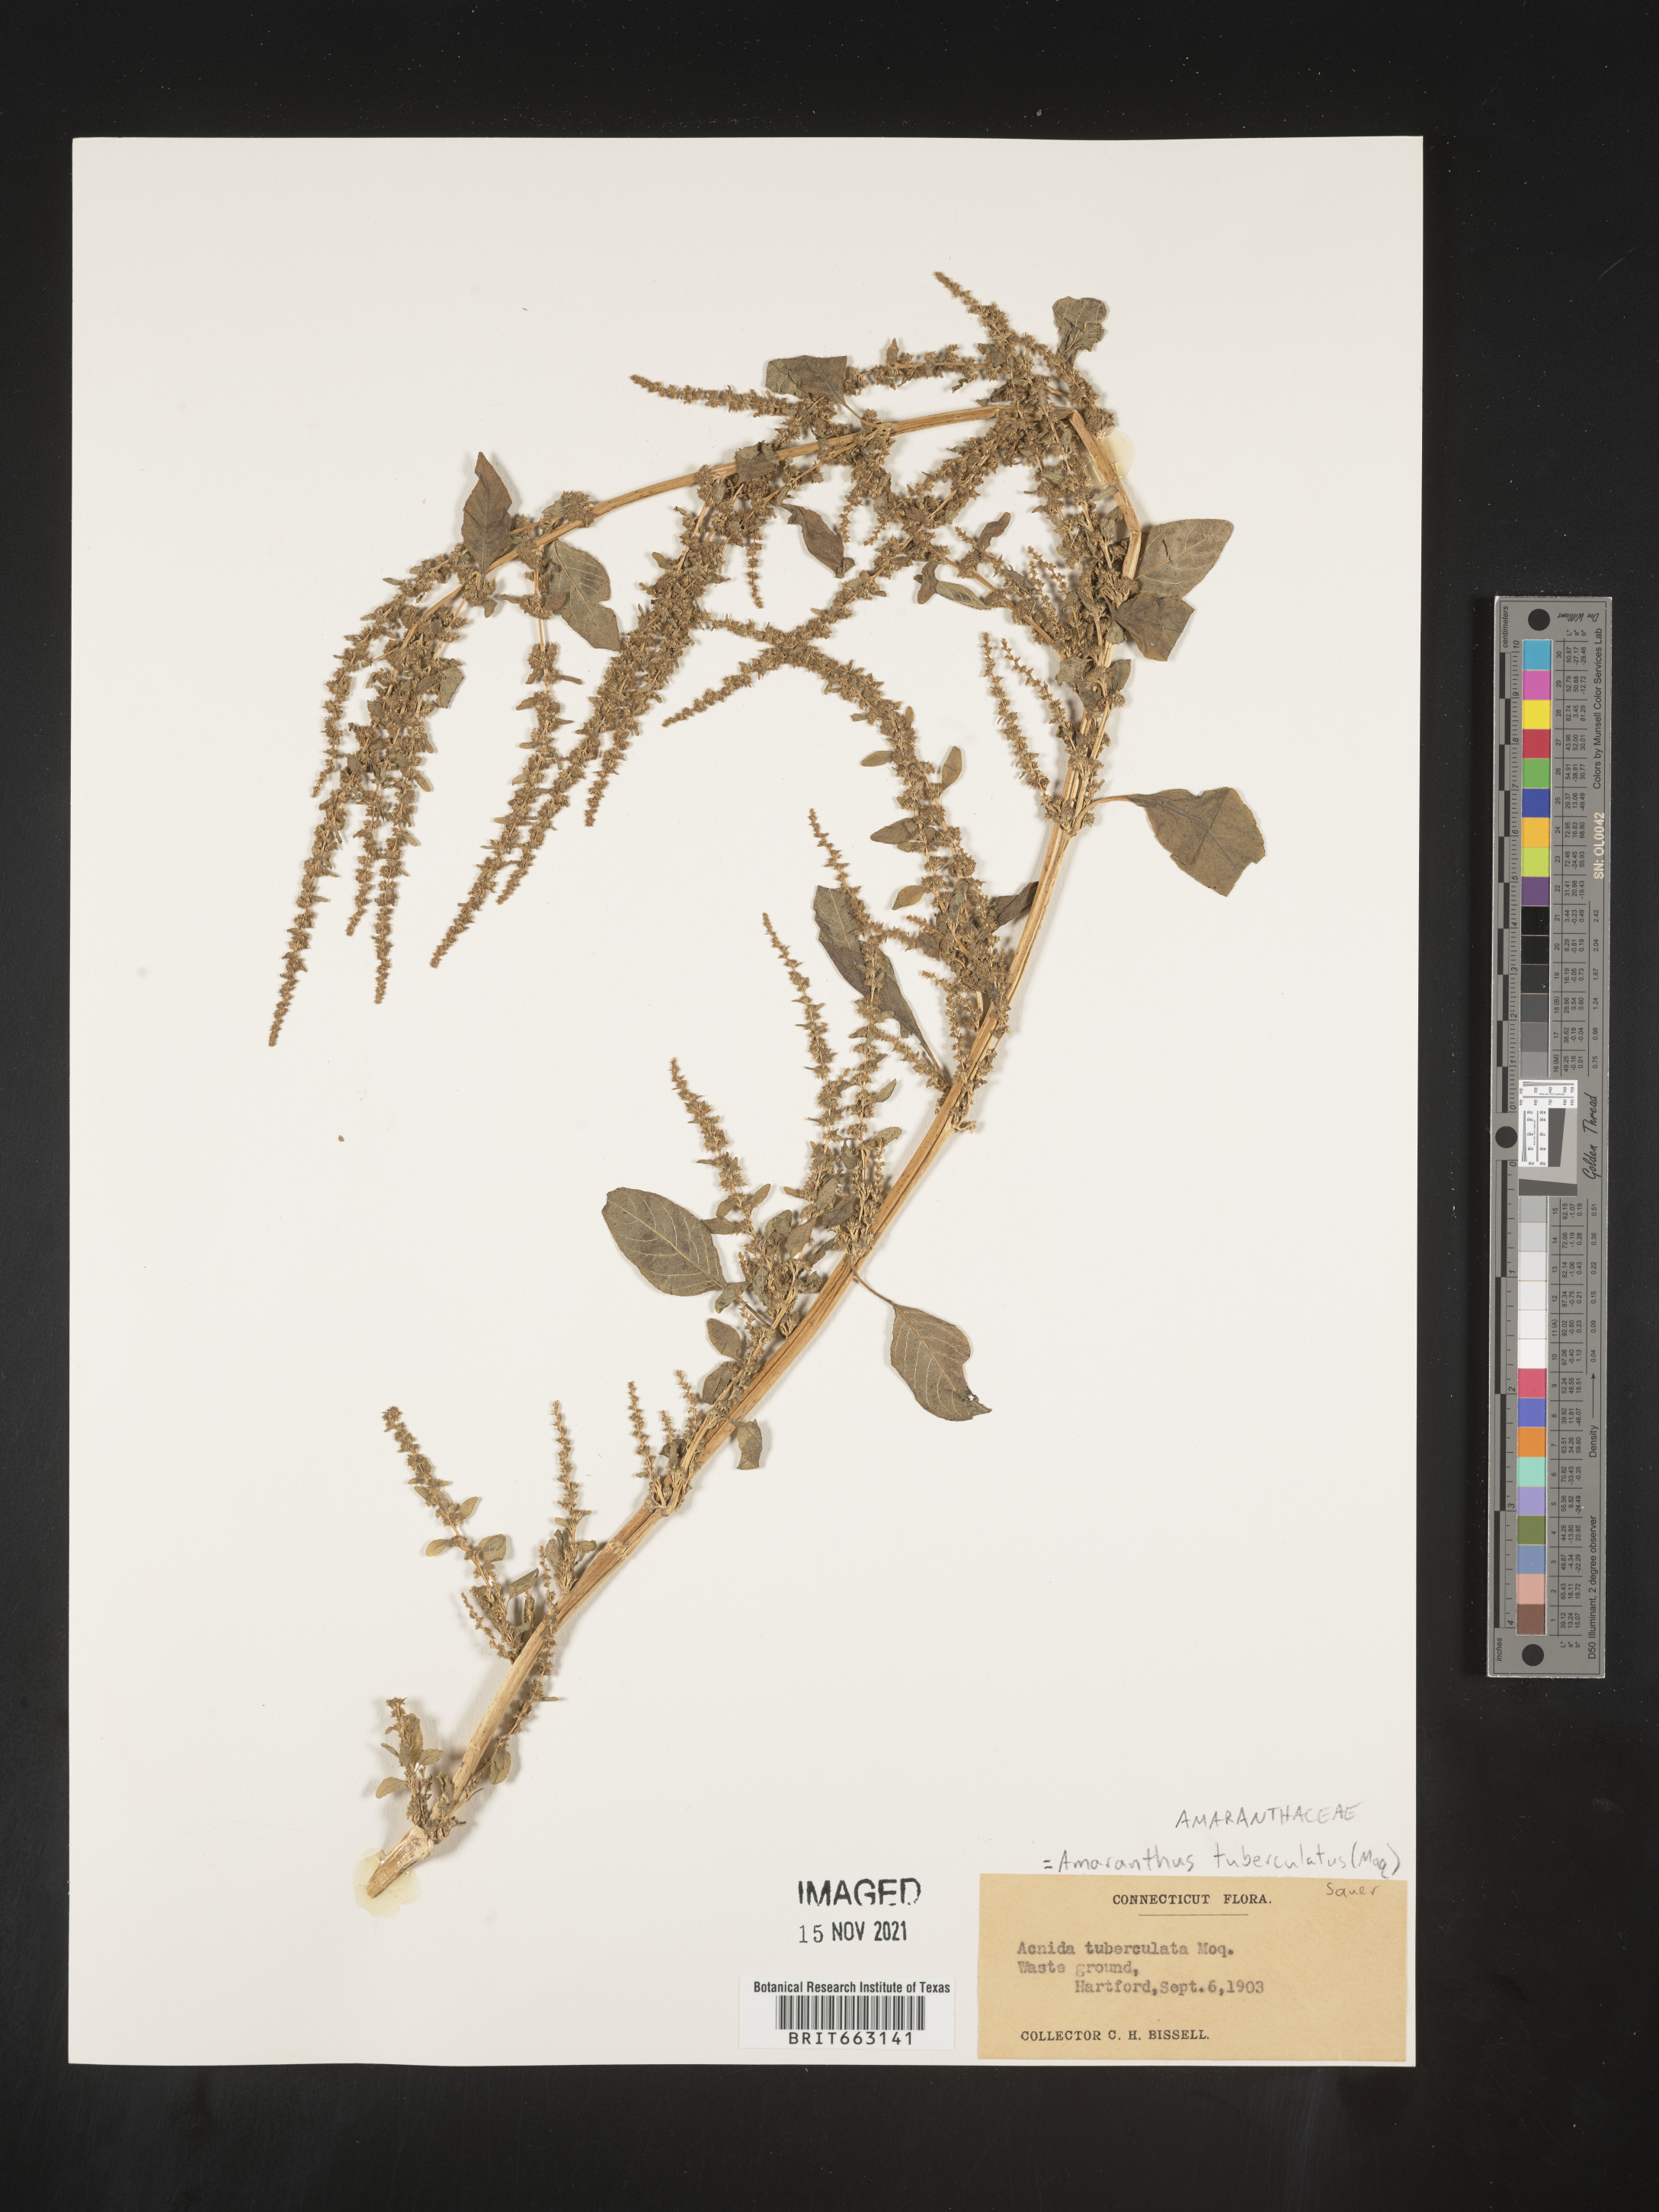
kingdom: Plantae
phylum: Tracheophyta
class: Magnoliopsida
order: Caryophyllales
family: Amaranthaceae
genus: Amaranthus
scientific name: Amaranthus tuberculatus
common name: Rough-fruit amaranth
